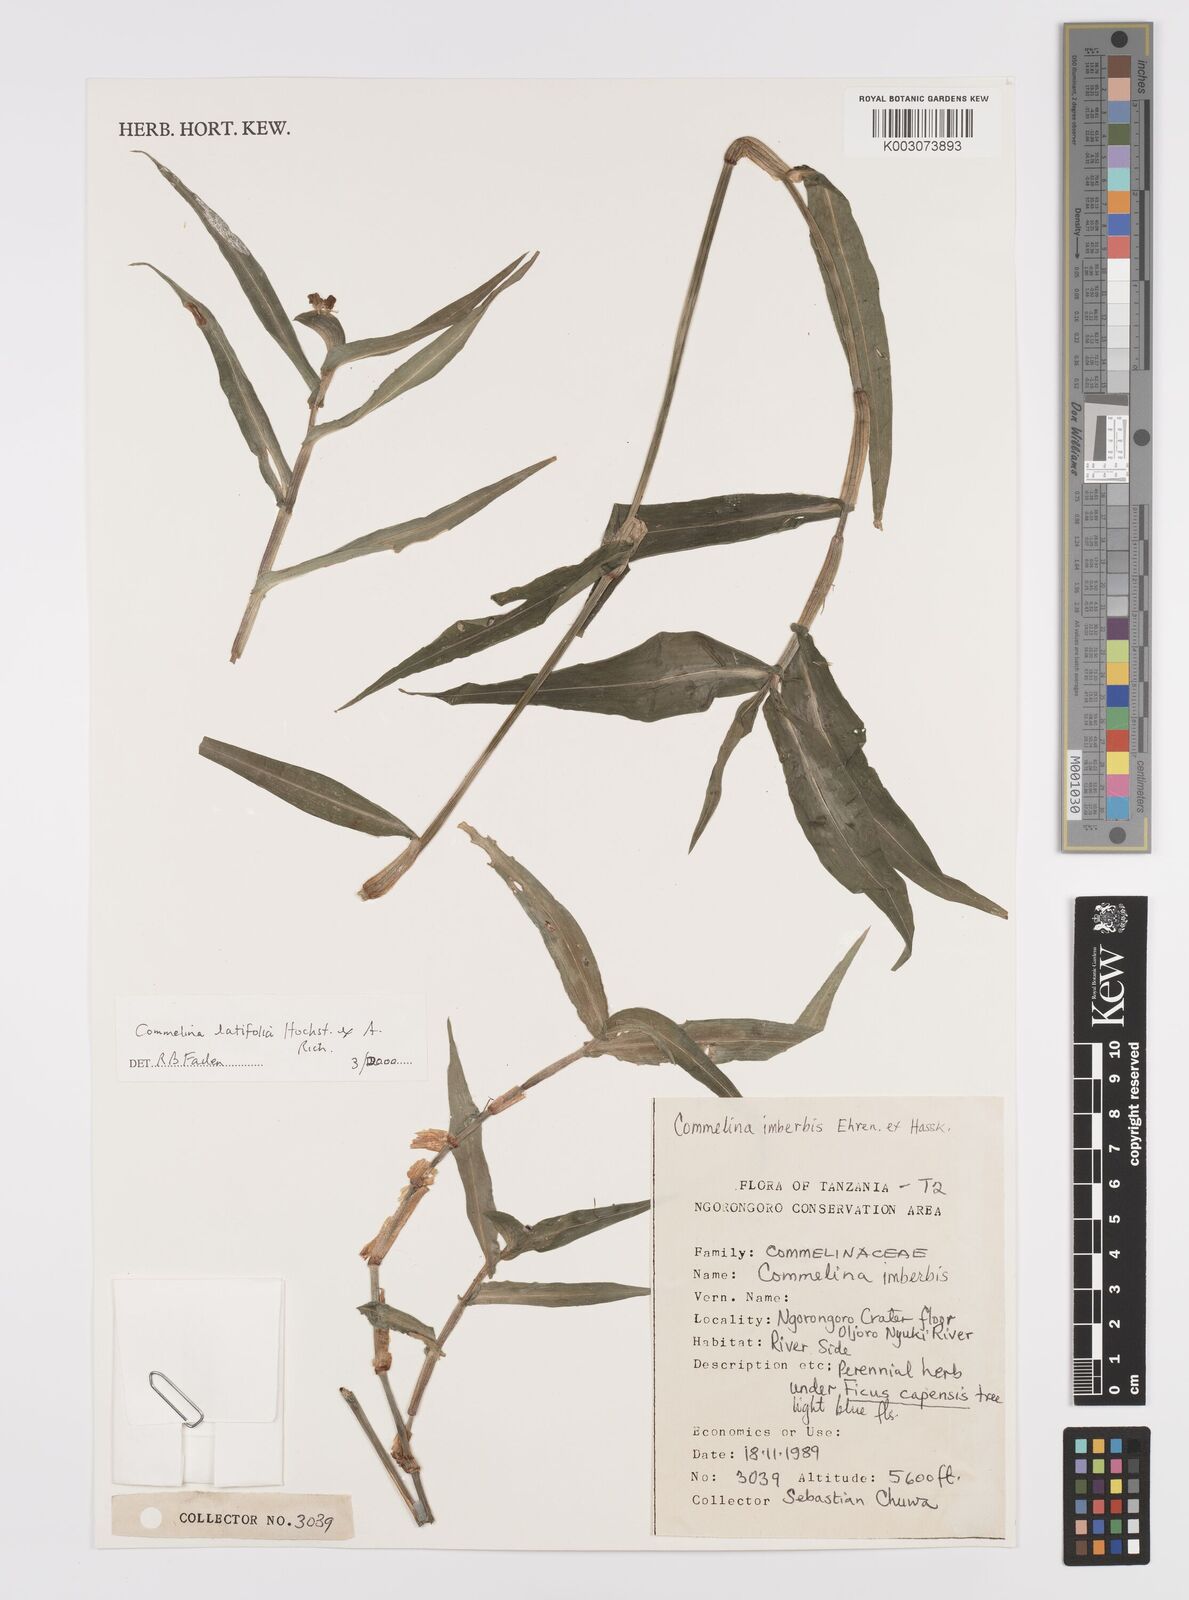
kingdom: Plantae
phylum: Tracheophyta
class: Liliopsida
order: Commelinales
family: Commelinaceae
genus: Commelina
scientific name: Commelina latifolia
